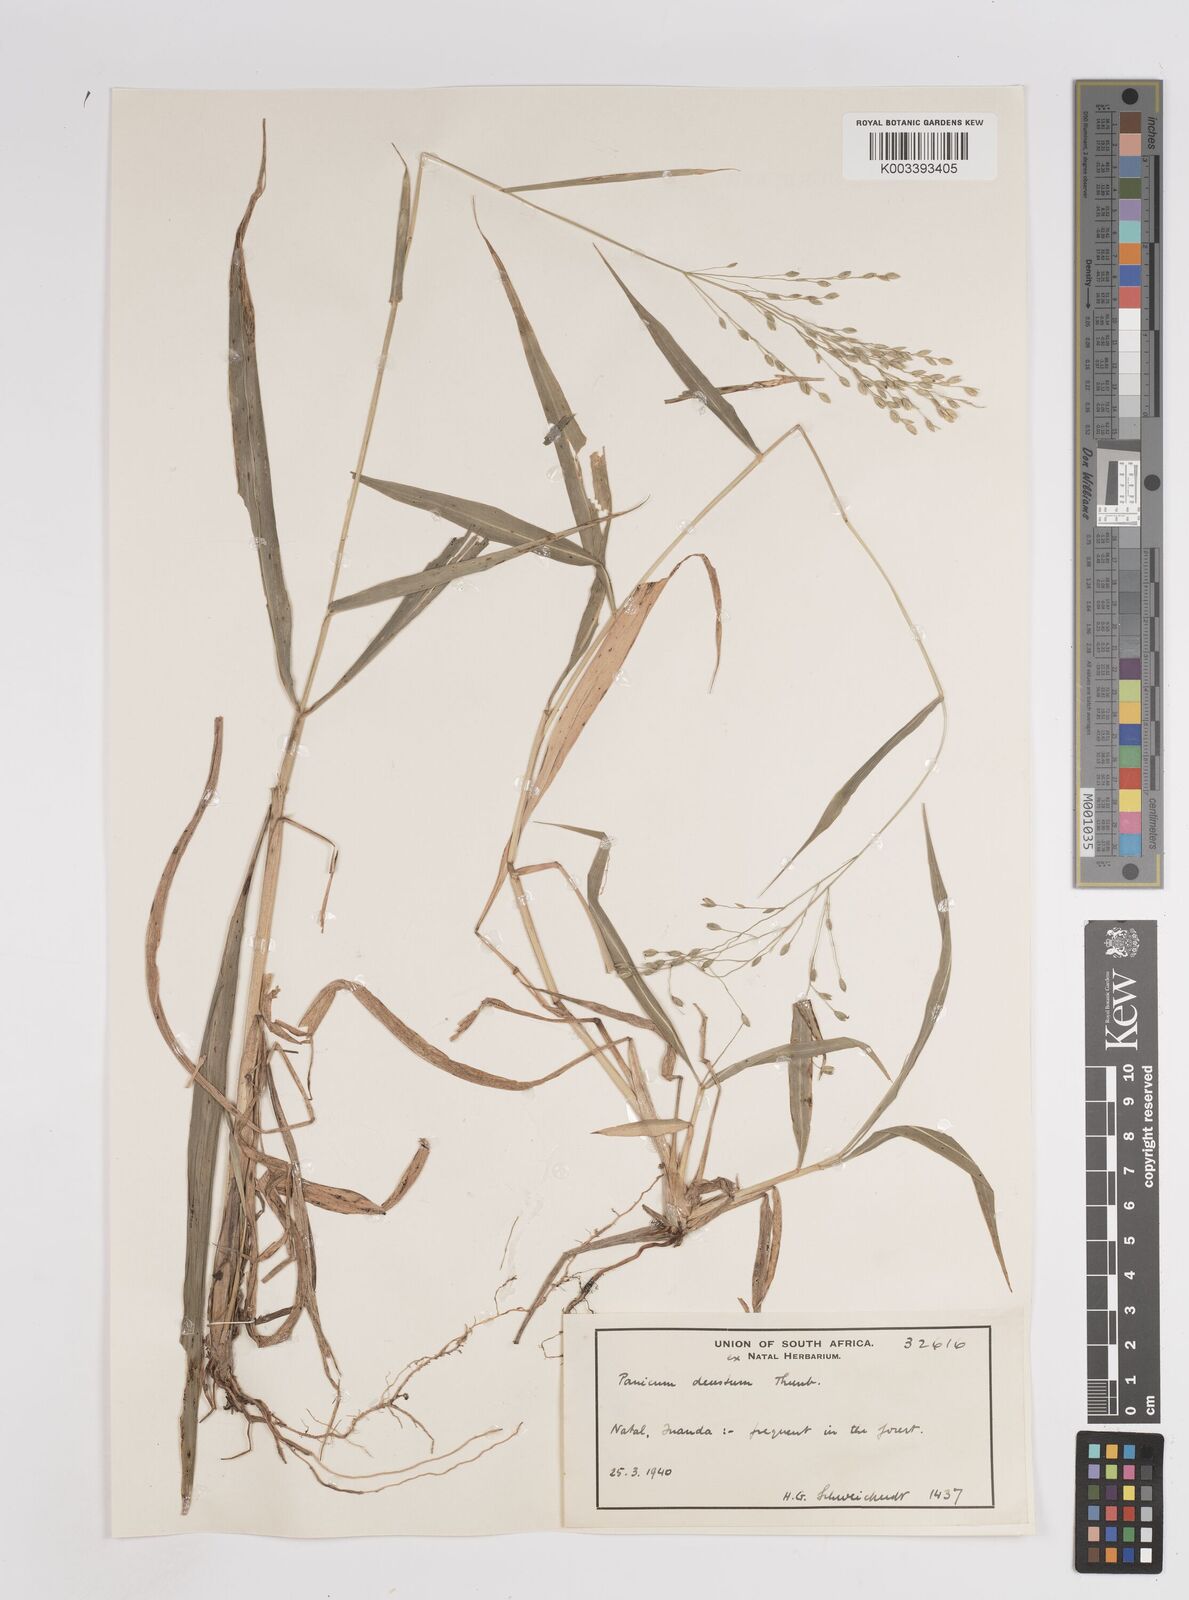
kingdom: Plantae
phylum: Tracheophyta
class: Liliopsida
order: Poales
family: Poaceae
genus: Panicum
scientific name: Panicum deustum
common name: Reed panicum
